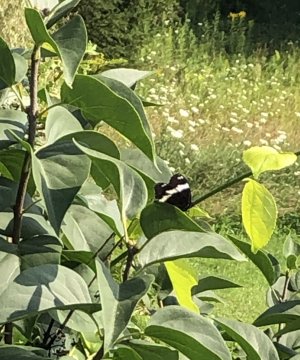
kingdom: Animalia
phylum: Arthropoda
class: Insecta
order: Lepidoptera
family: Nymphalidae
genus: Limenitis
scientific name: Limenitis arthemis
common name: Red-spotted Admiral
